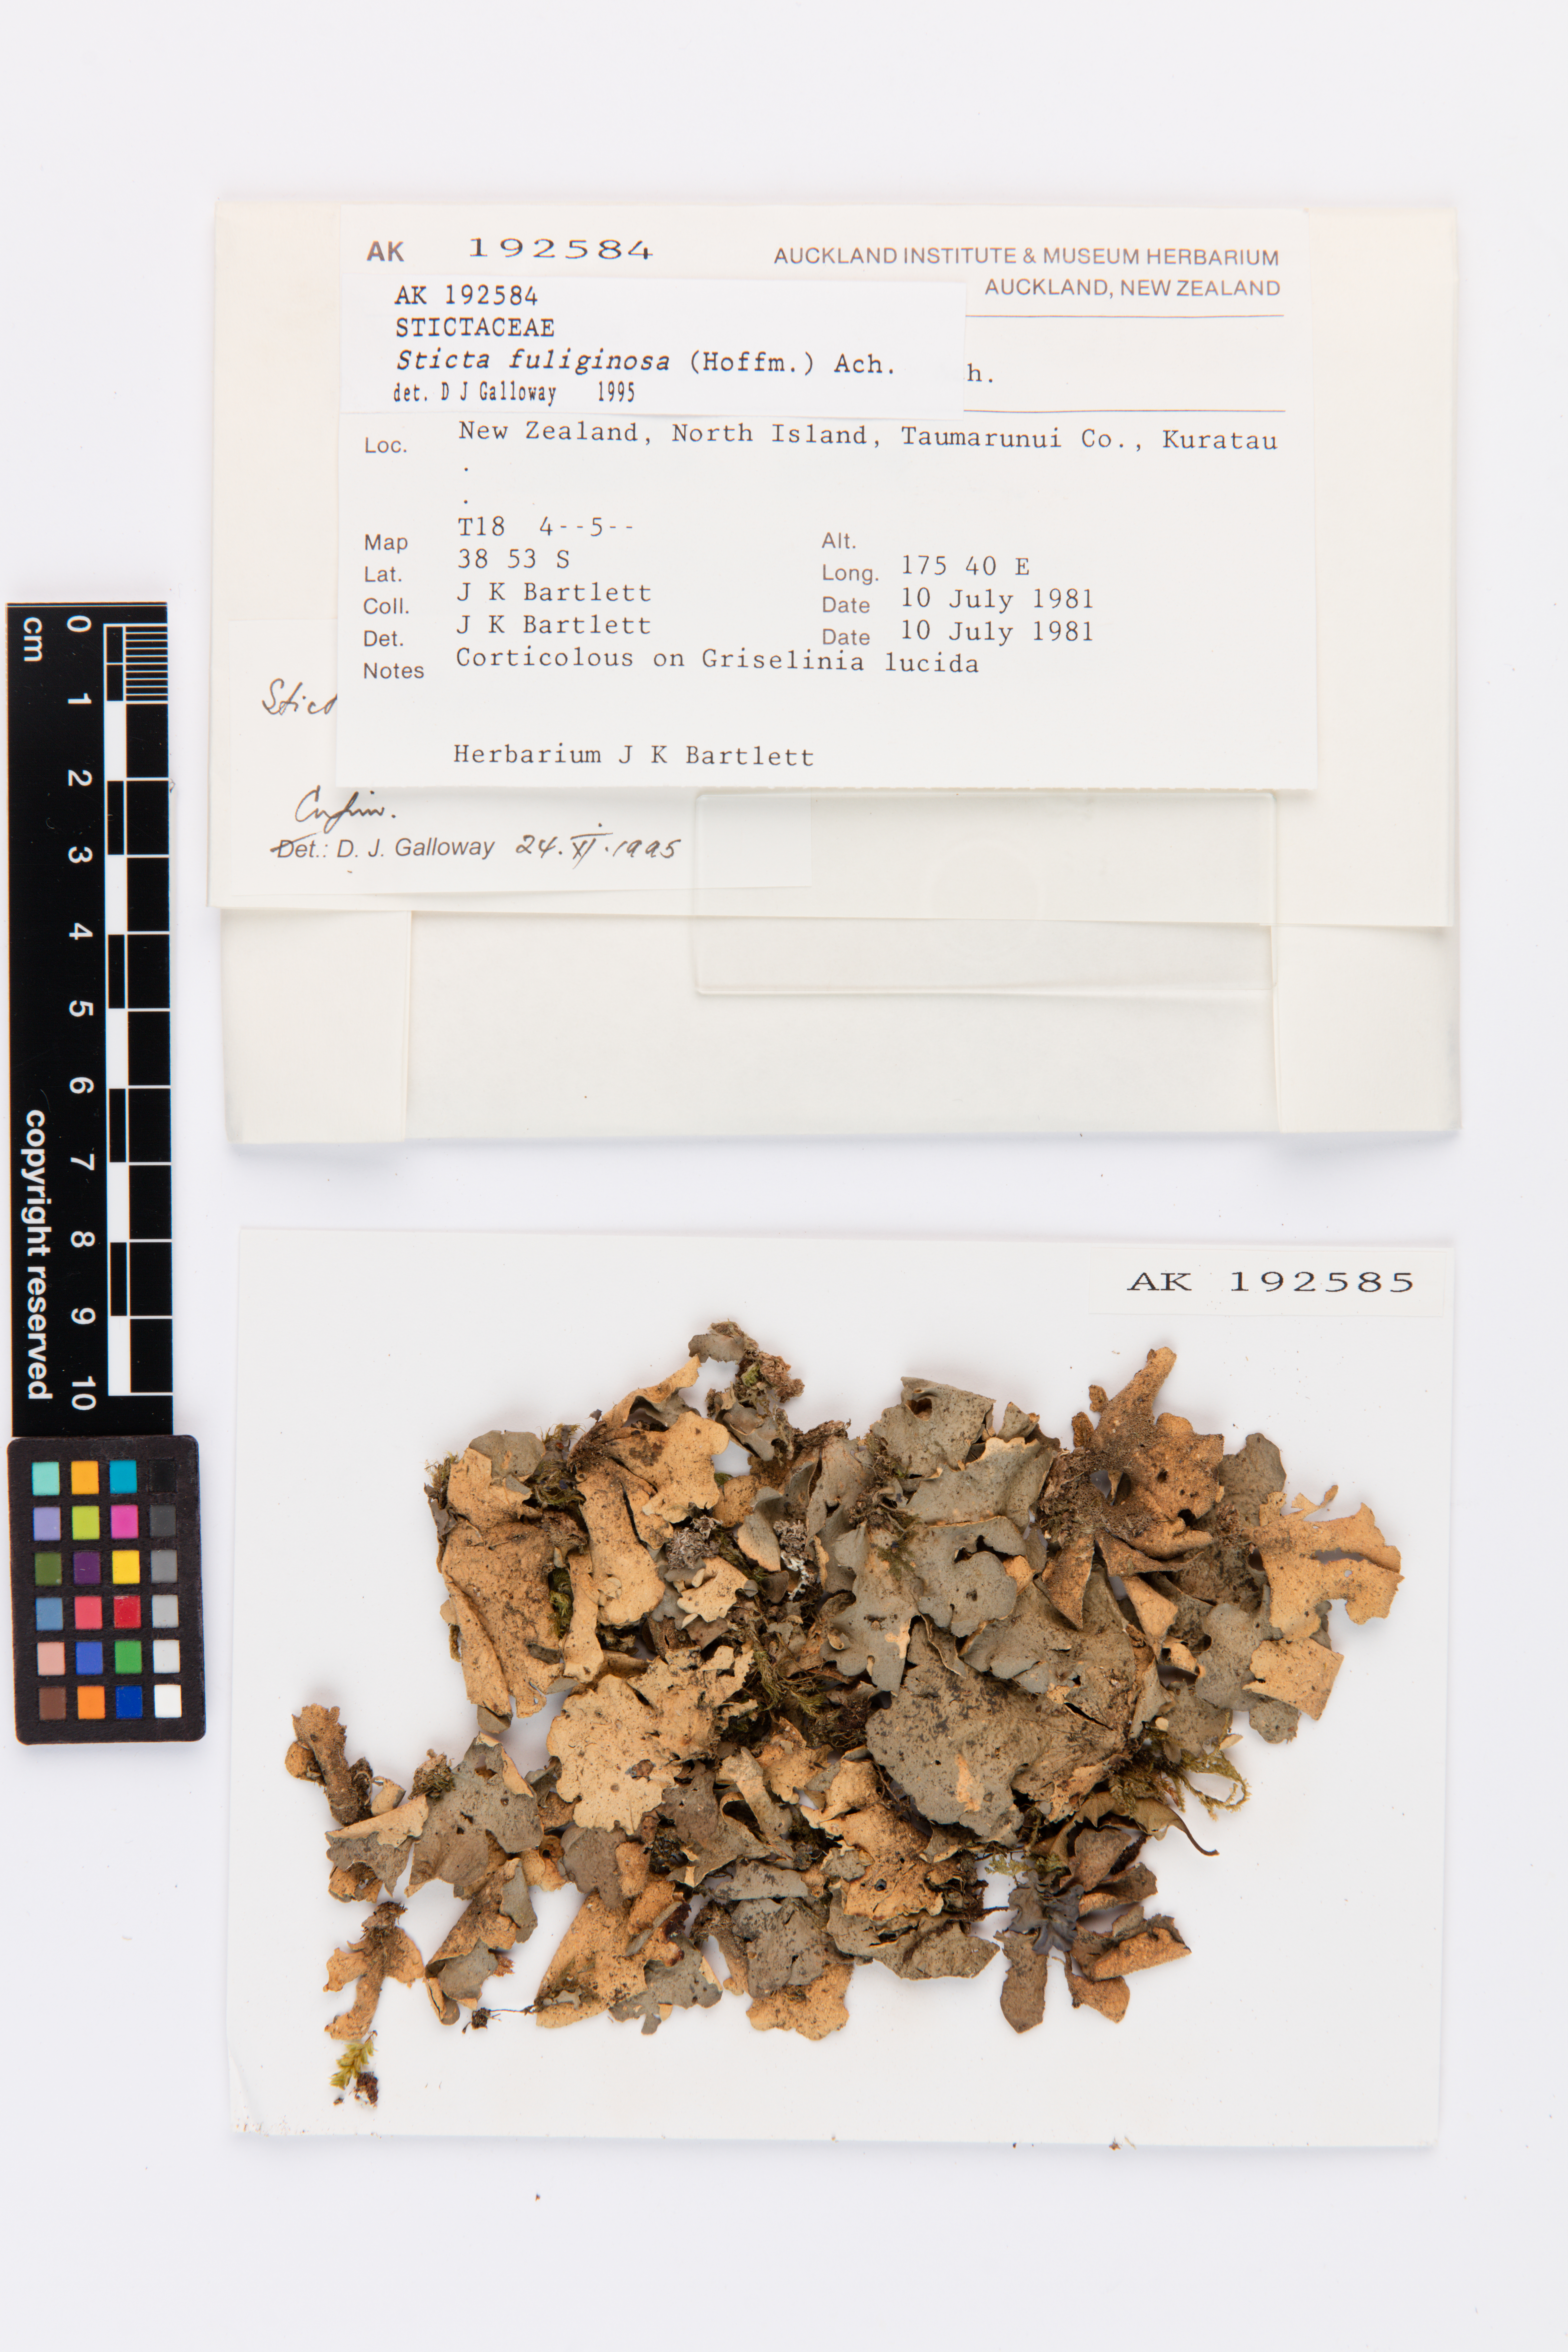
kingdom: Fungi
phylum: Ascomycota
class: Lecanoromycetes
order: Peltigerales
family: Lobariaceae
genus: Sticta
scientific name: Sticta fuliginosa
